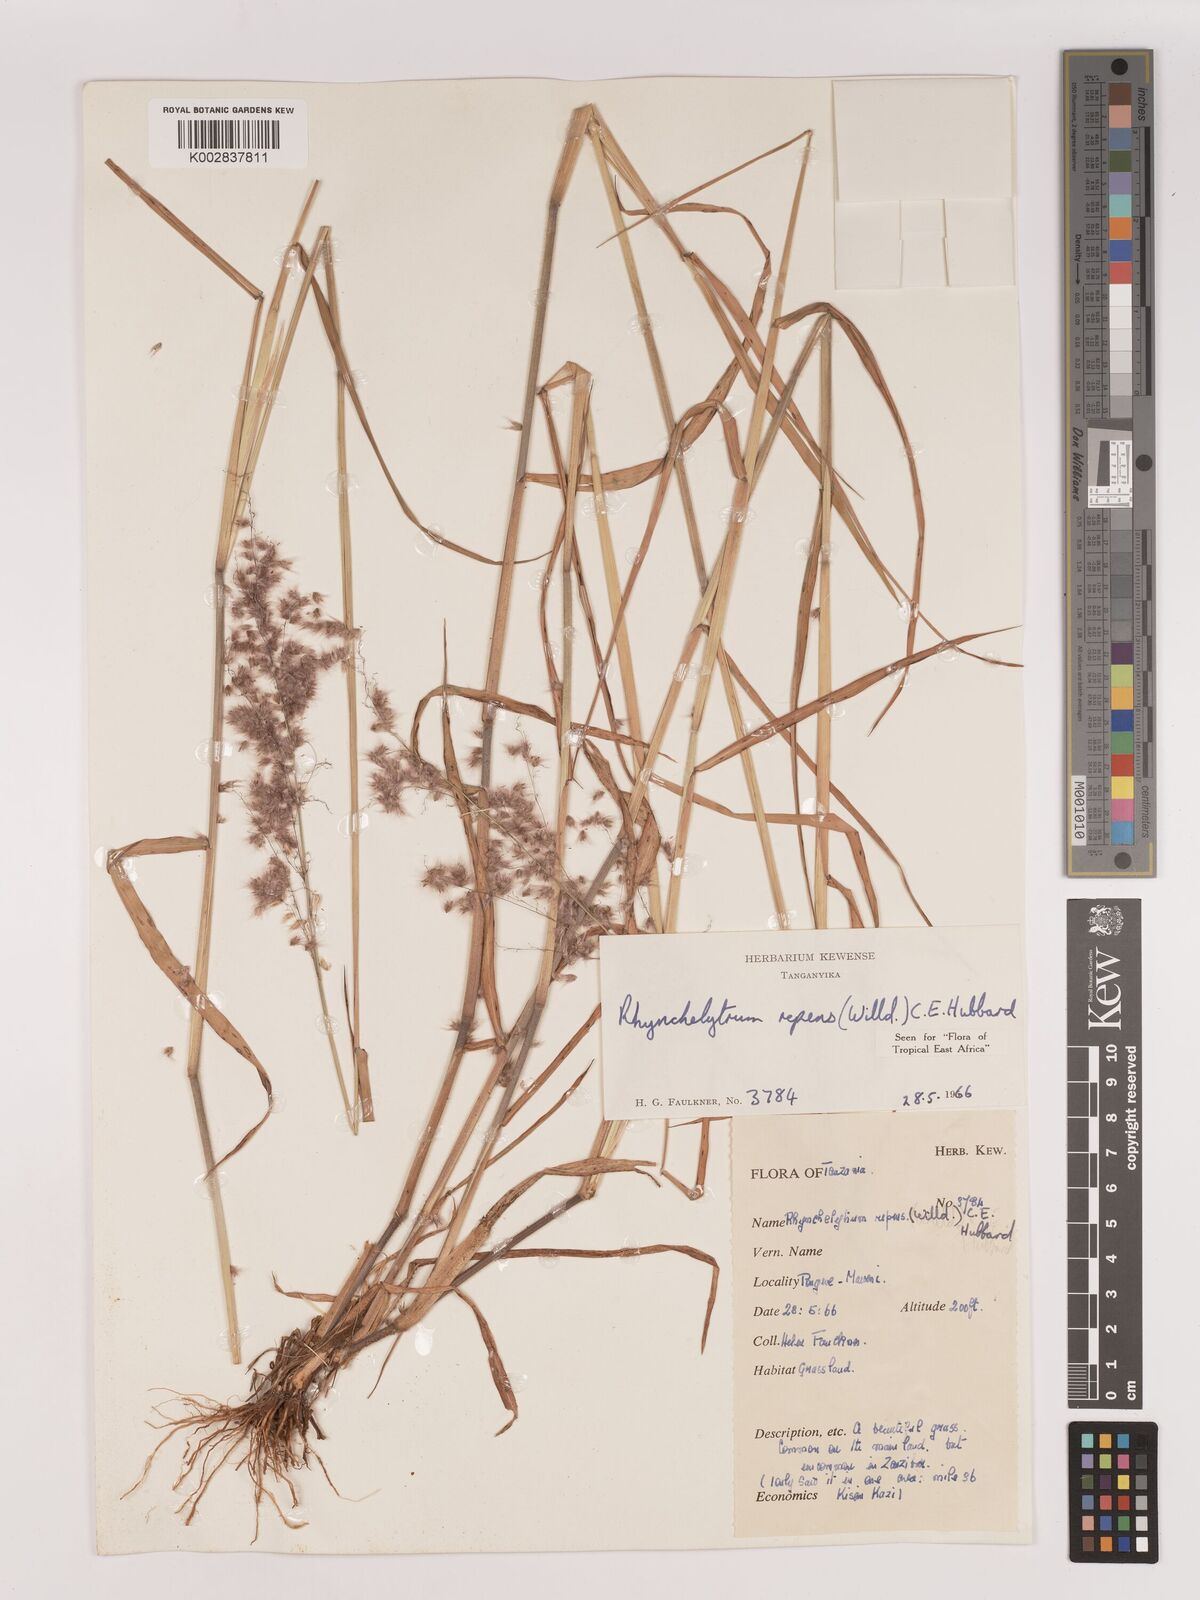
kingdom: Plantae
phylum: Tracheophyta
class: Liliopsida
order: Poales
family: Poaceae
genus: Melinis
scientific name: Melinis repens
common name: Rose natal grass
